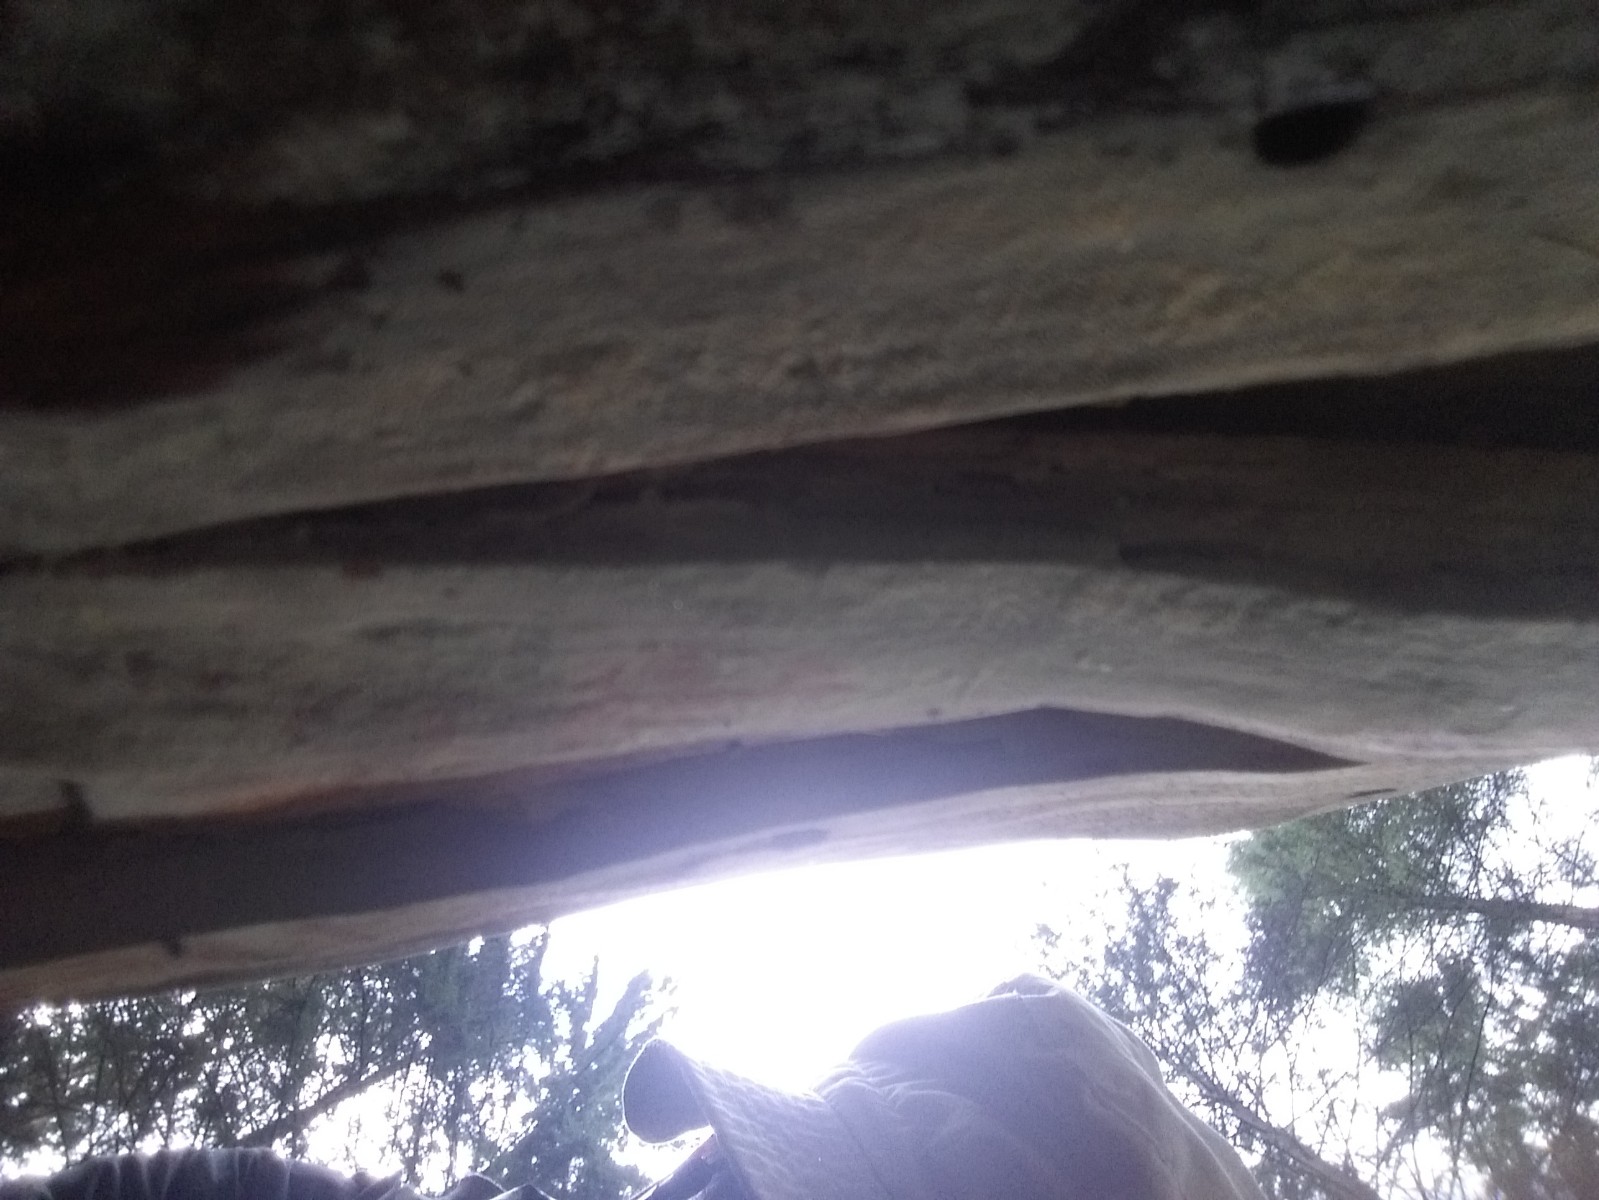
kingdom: Fungi
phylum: Basidiomycota
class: Agaricomycetes
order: Corticiales
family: Corticiaceae
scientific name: Corticiaceae
